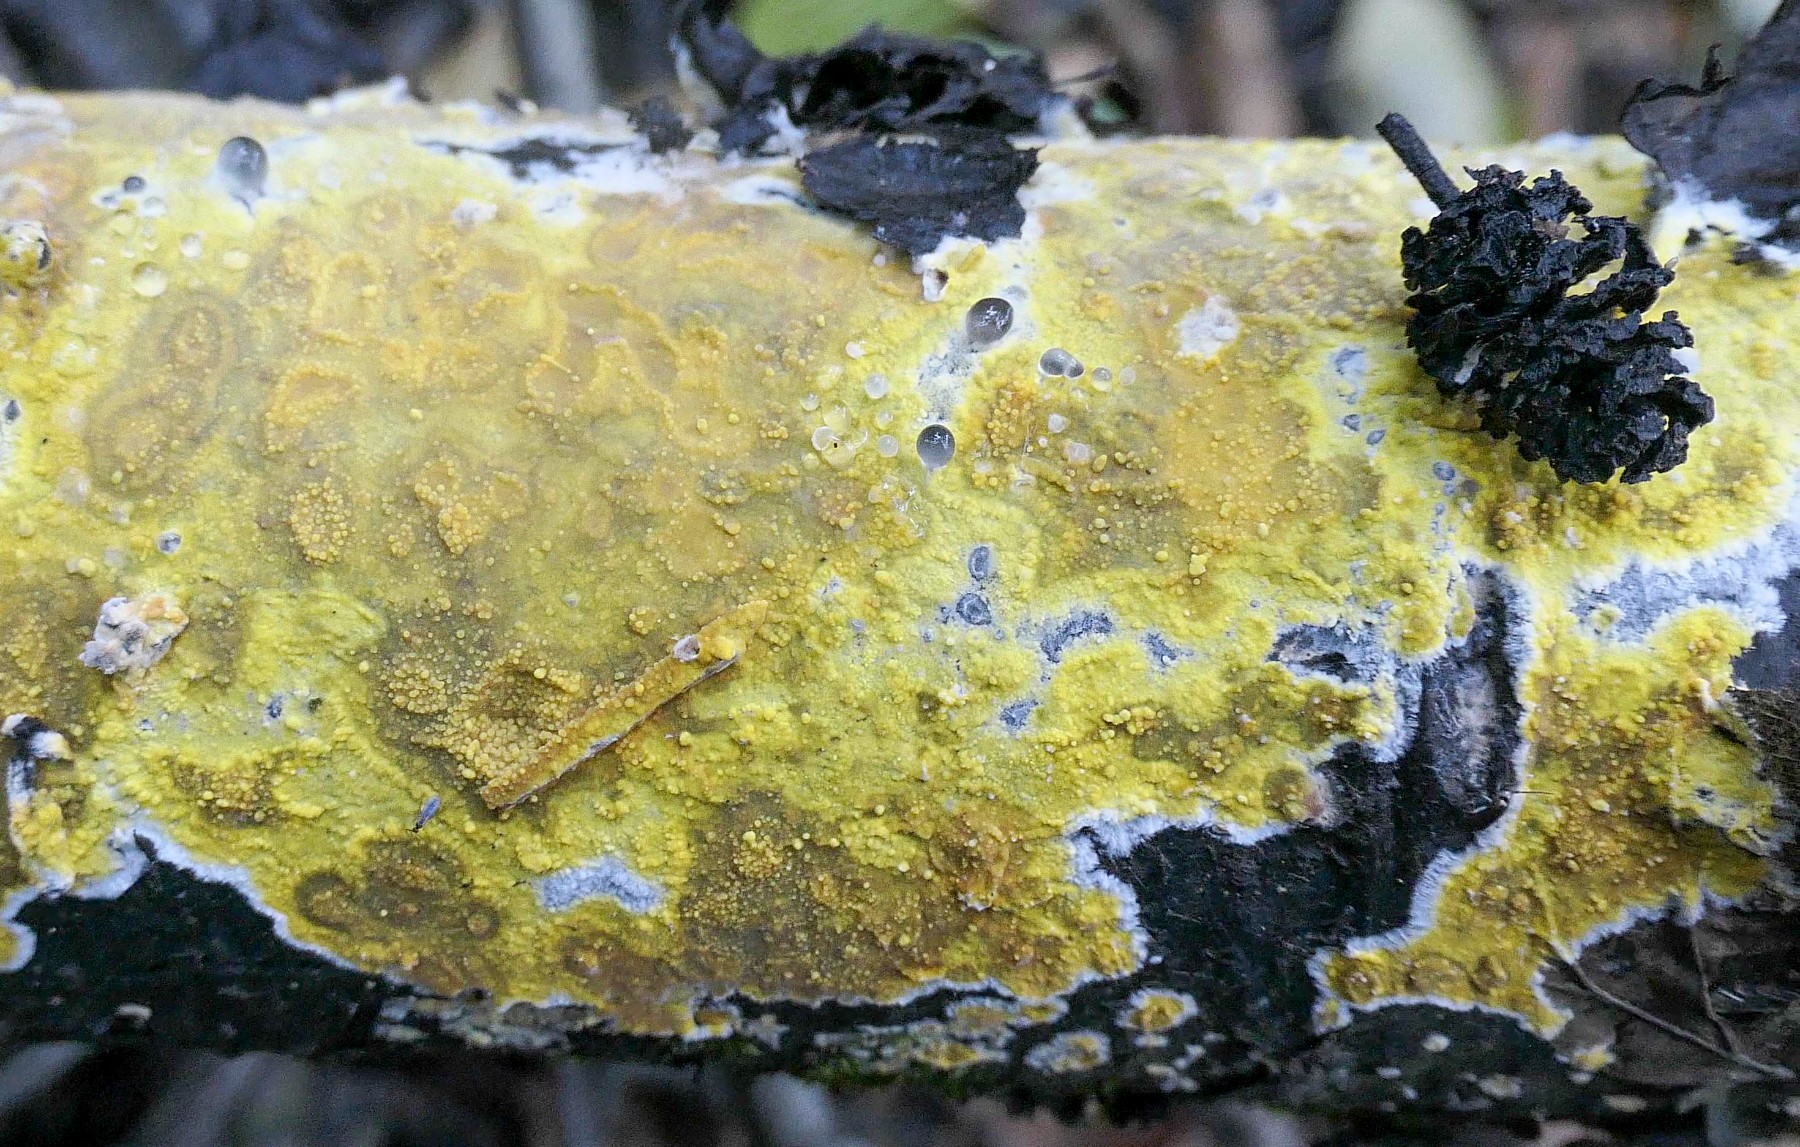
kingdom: Fungi
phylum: Basidiomycota
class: Agaricomycetes
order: Polyporales
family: Meruliaceae
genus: Phlebiodontia
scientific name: Phlebiodontia subochracea
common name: svovl-åresvamp
